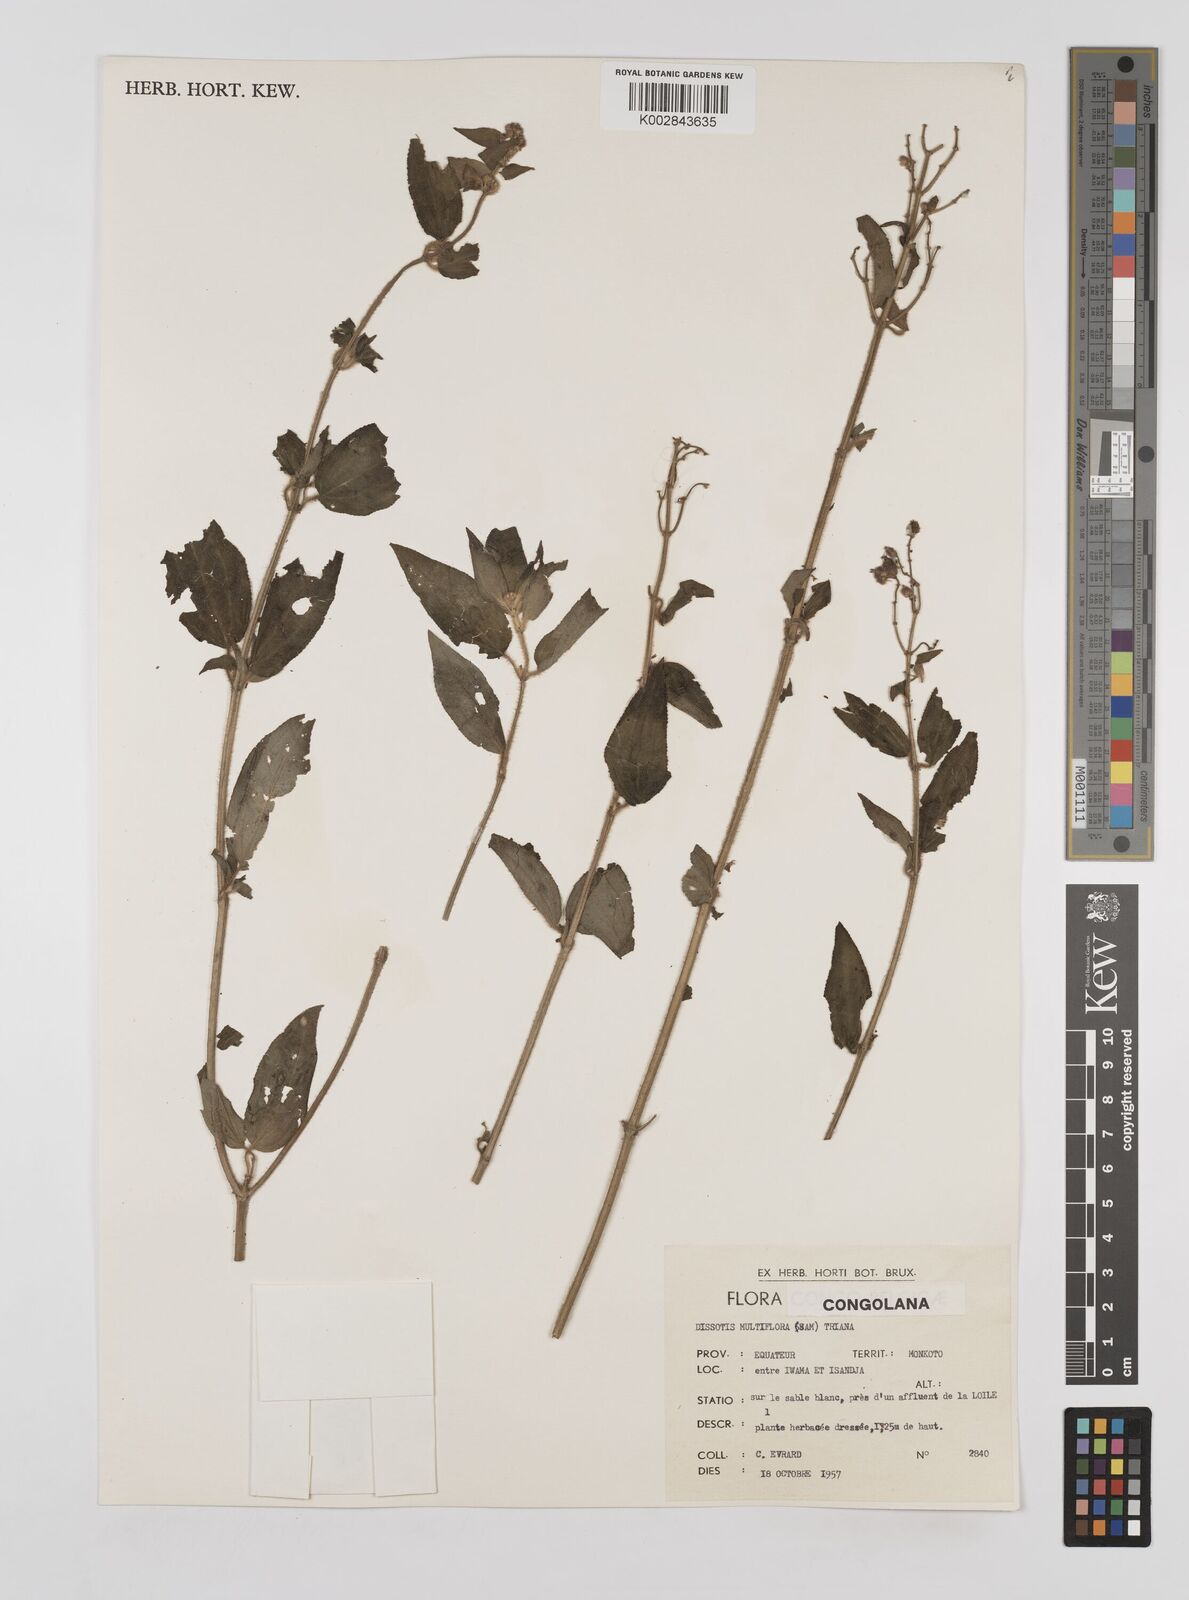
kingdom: Plantae
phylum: Tracheophyta
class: Magnoliopsida
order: Myrtales
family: Melastomataceae
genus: Dupineta
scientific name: Dupineta multiflora
